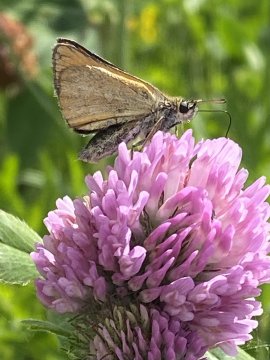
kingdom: Animalia
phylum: Arthropoda
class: Insecta
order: Lepidoptera
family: Hesperiidae
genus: Thymelicus
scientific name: Thymelicus lineola
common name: European Skipper
